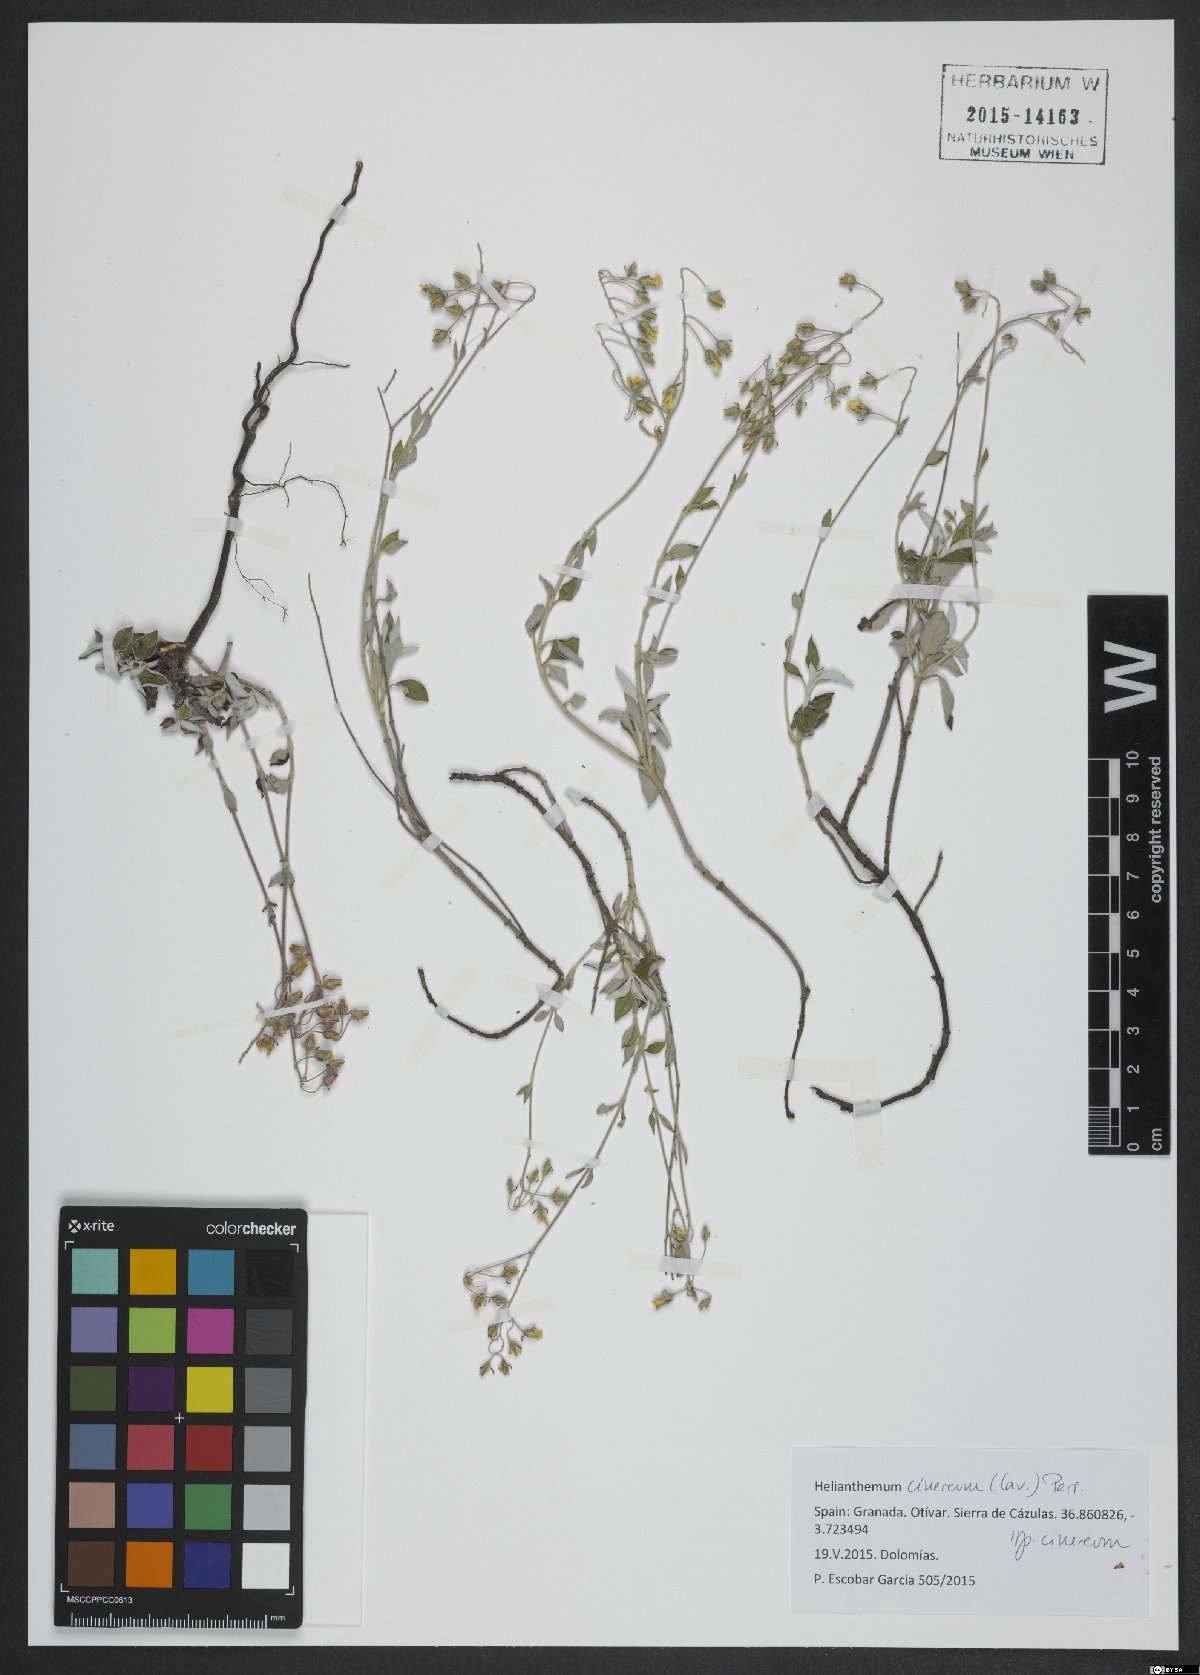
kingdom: Plantae
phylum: Tracheophyta
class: Magnoliopsida
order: Malvales
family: Cistaceae
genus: Helianthemum
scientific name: Helianthemum cinereum
